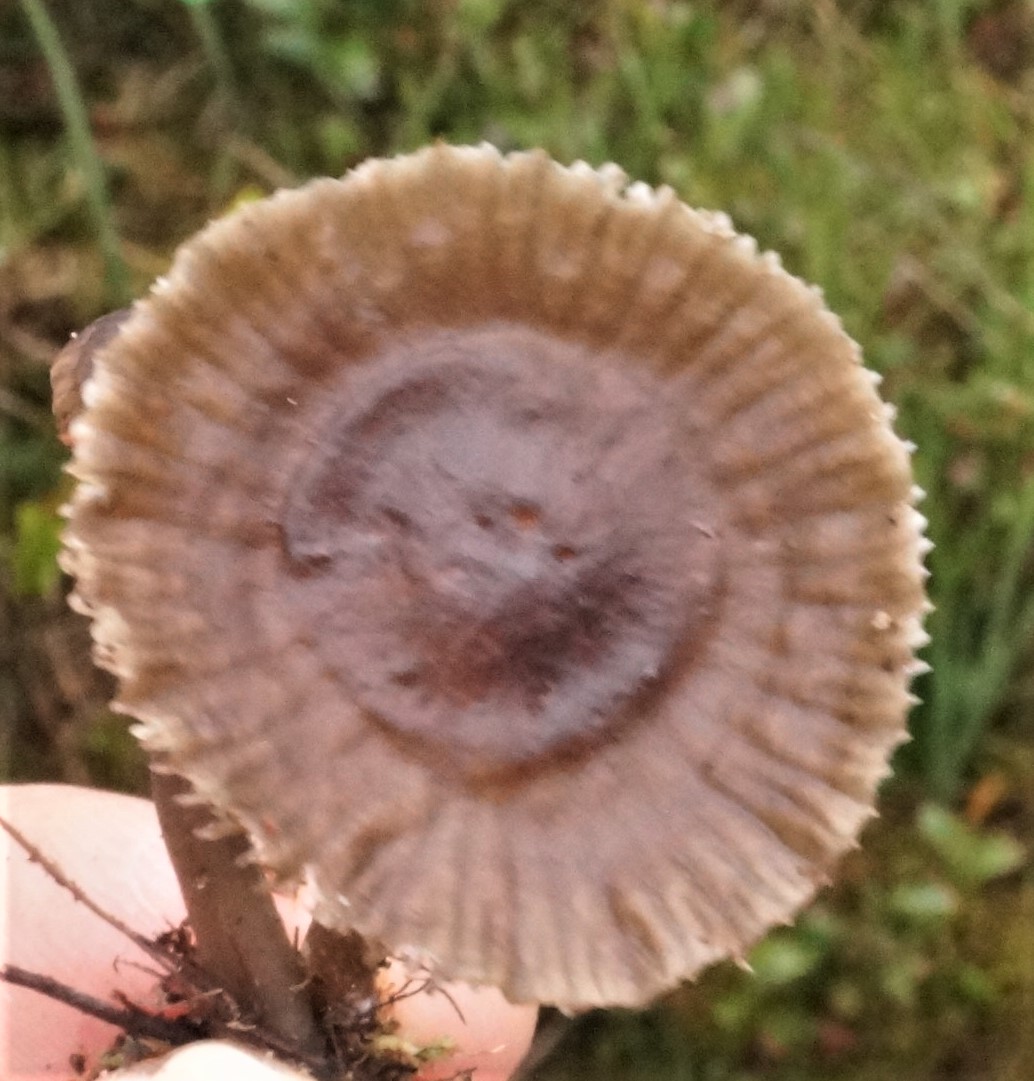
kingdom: Fungi
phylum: Basidiomycota
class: Agaricomycetes
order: Agaricales
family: Mycenaceae
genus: Mycena
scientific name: Mycena megaspora
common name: brusk-huesvamp
